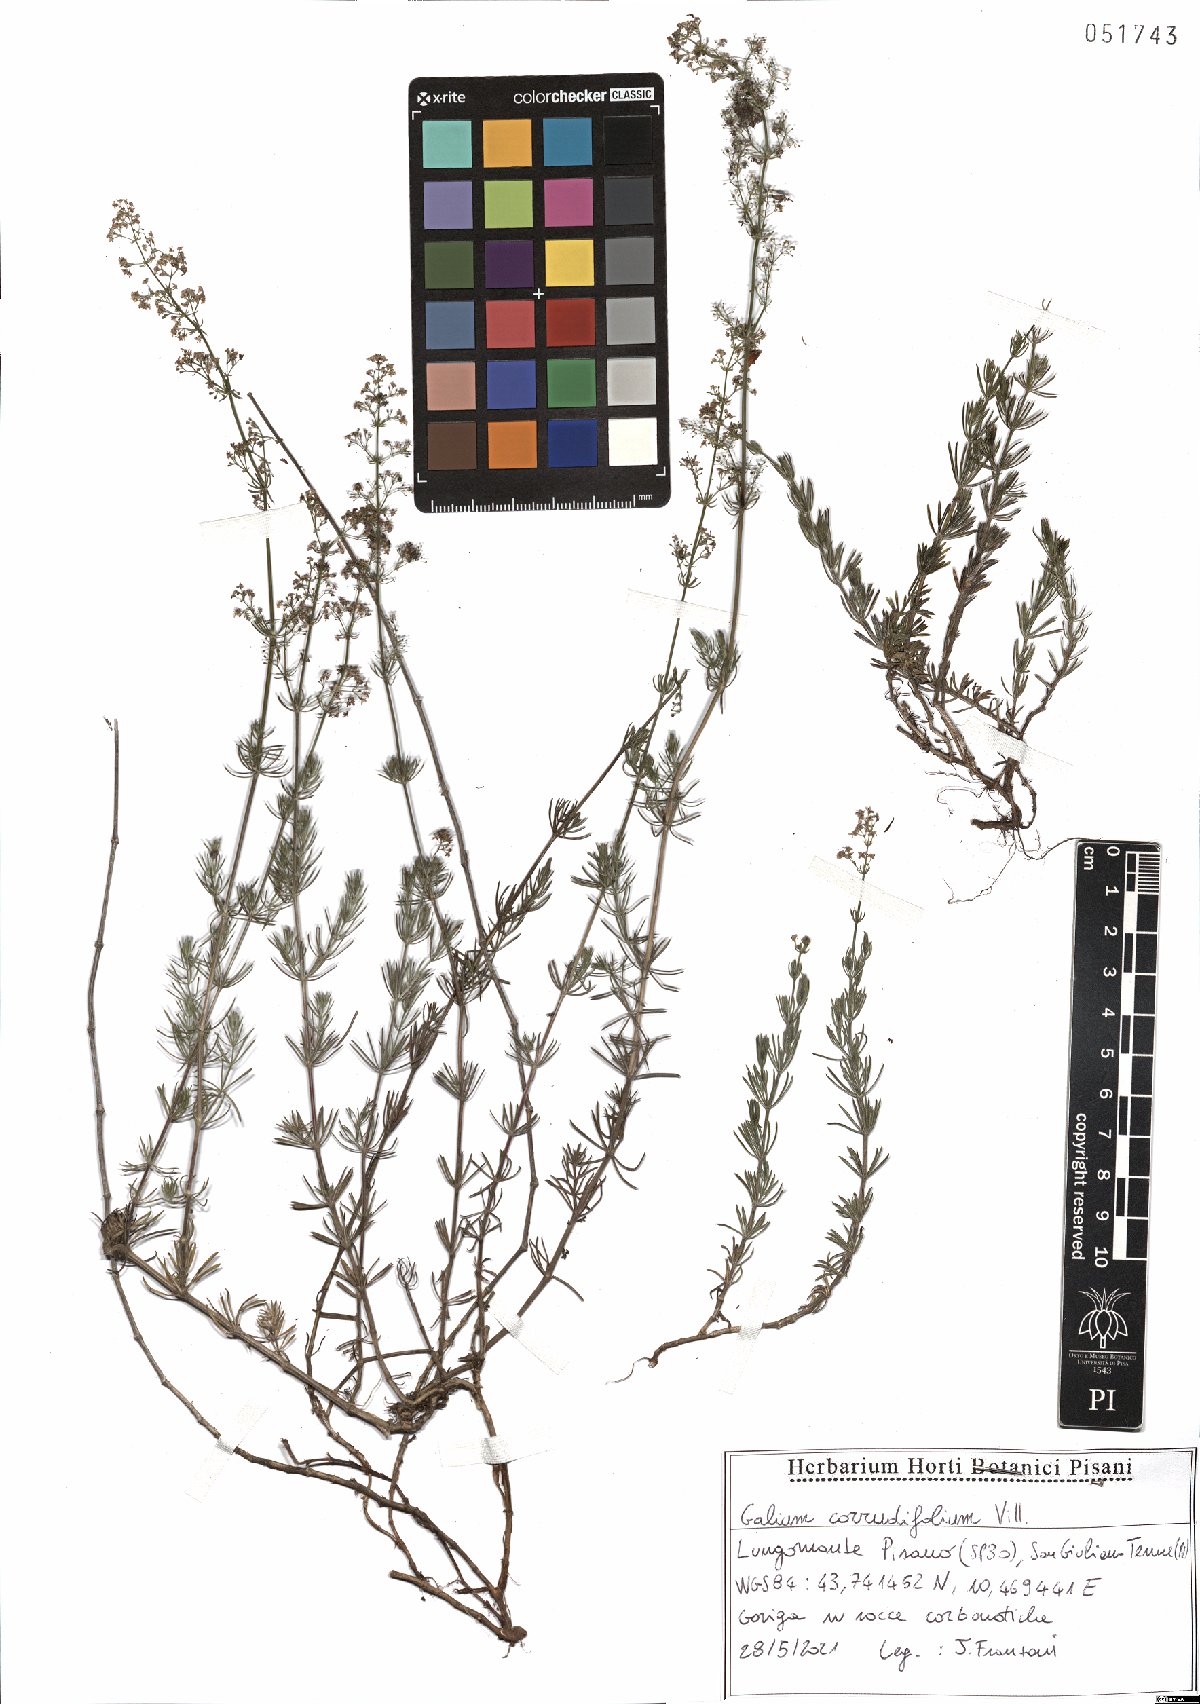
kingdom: Plantae
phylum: Tracheophyta
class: Magnoliopsida
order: Gentianales
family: Rubiaceae
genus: Galium
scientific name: Galium lucidum
